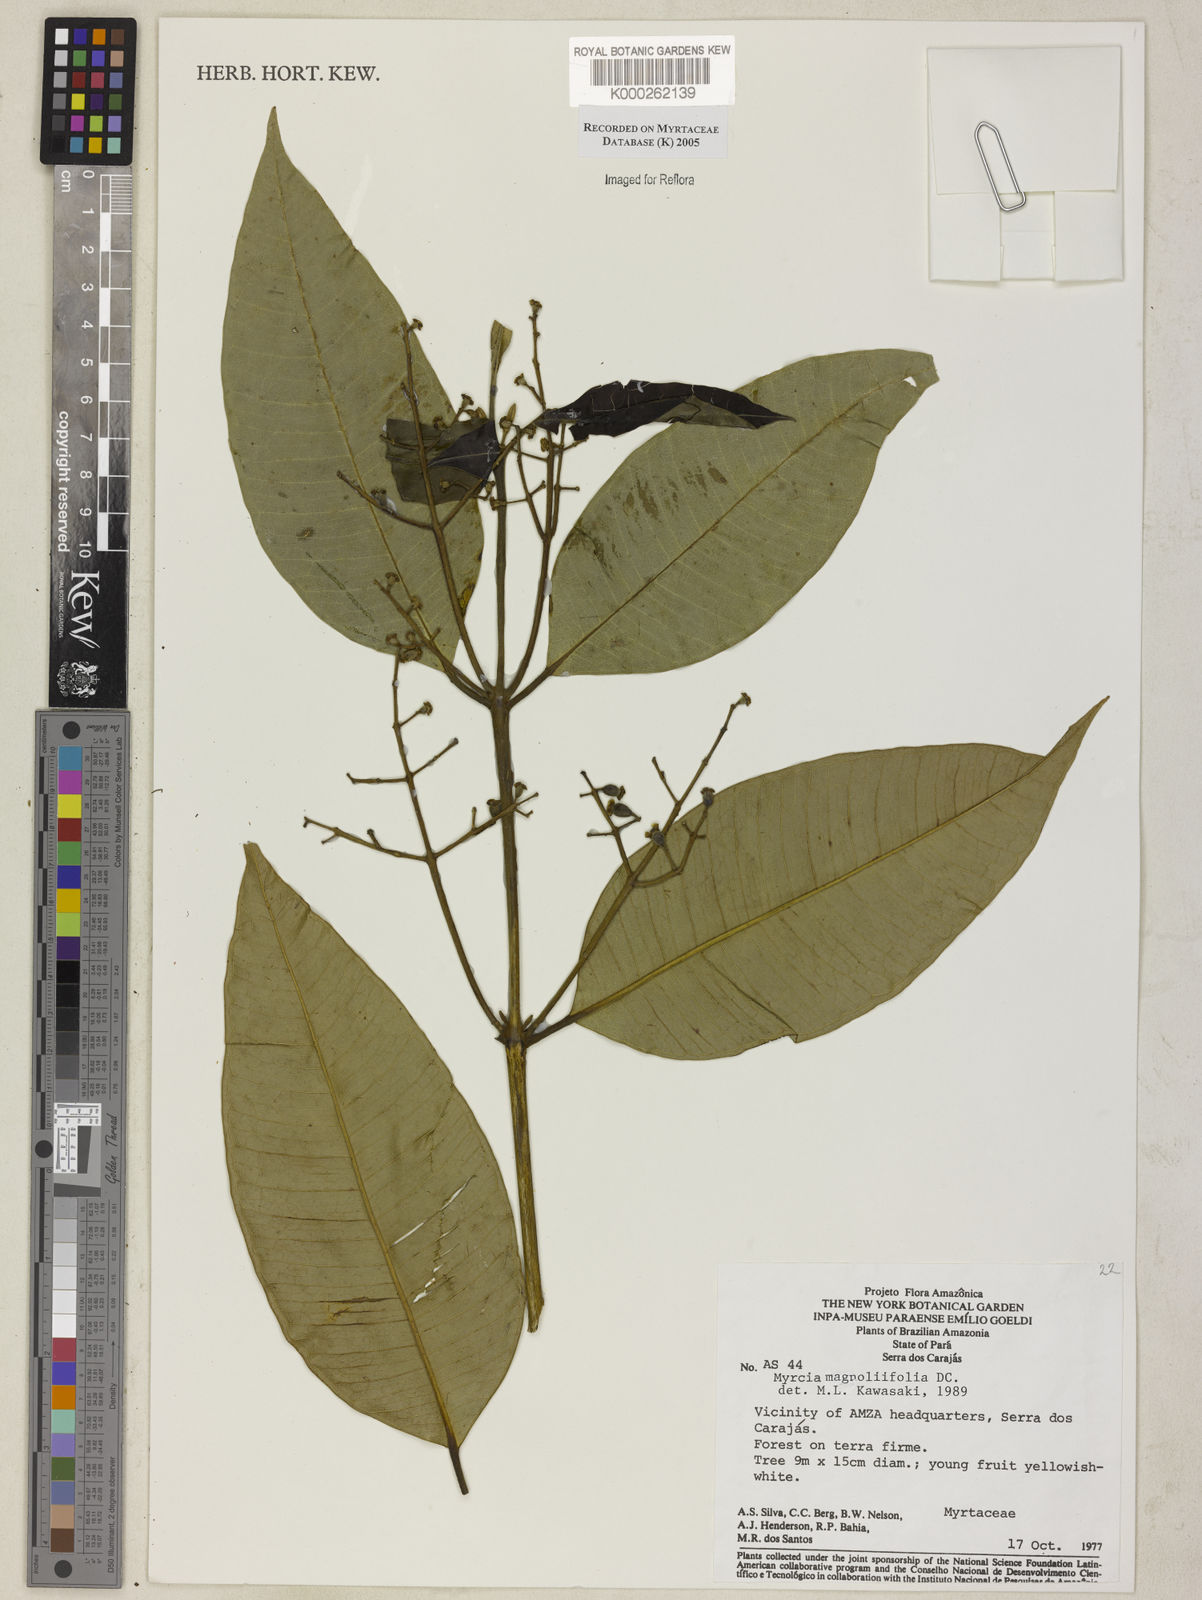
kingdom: Plantae
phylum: Tracheophyta
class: Magnoliopsida
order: Myrtales
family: Myrtaceae
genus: Myrcia
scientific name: Myrcia splendens
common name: Surinam cherry
